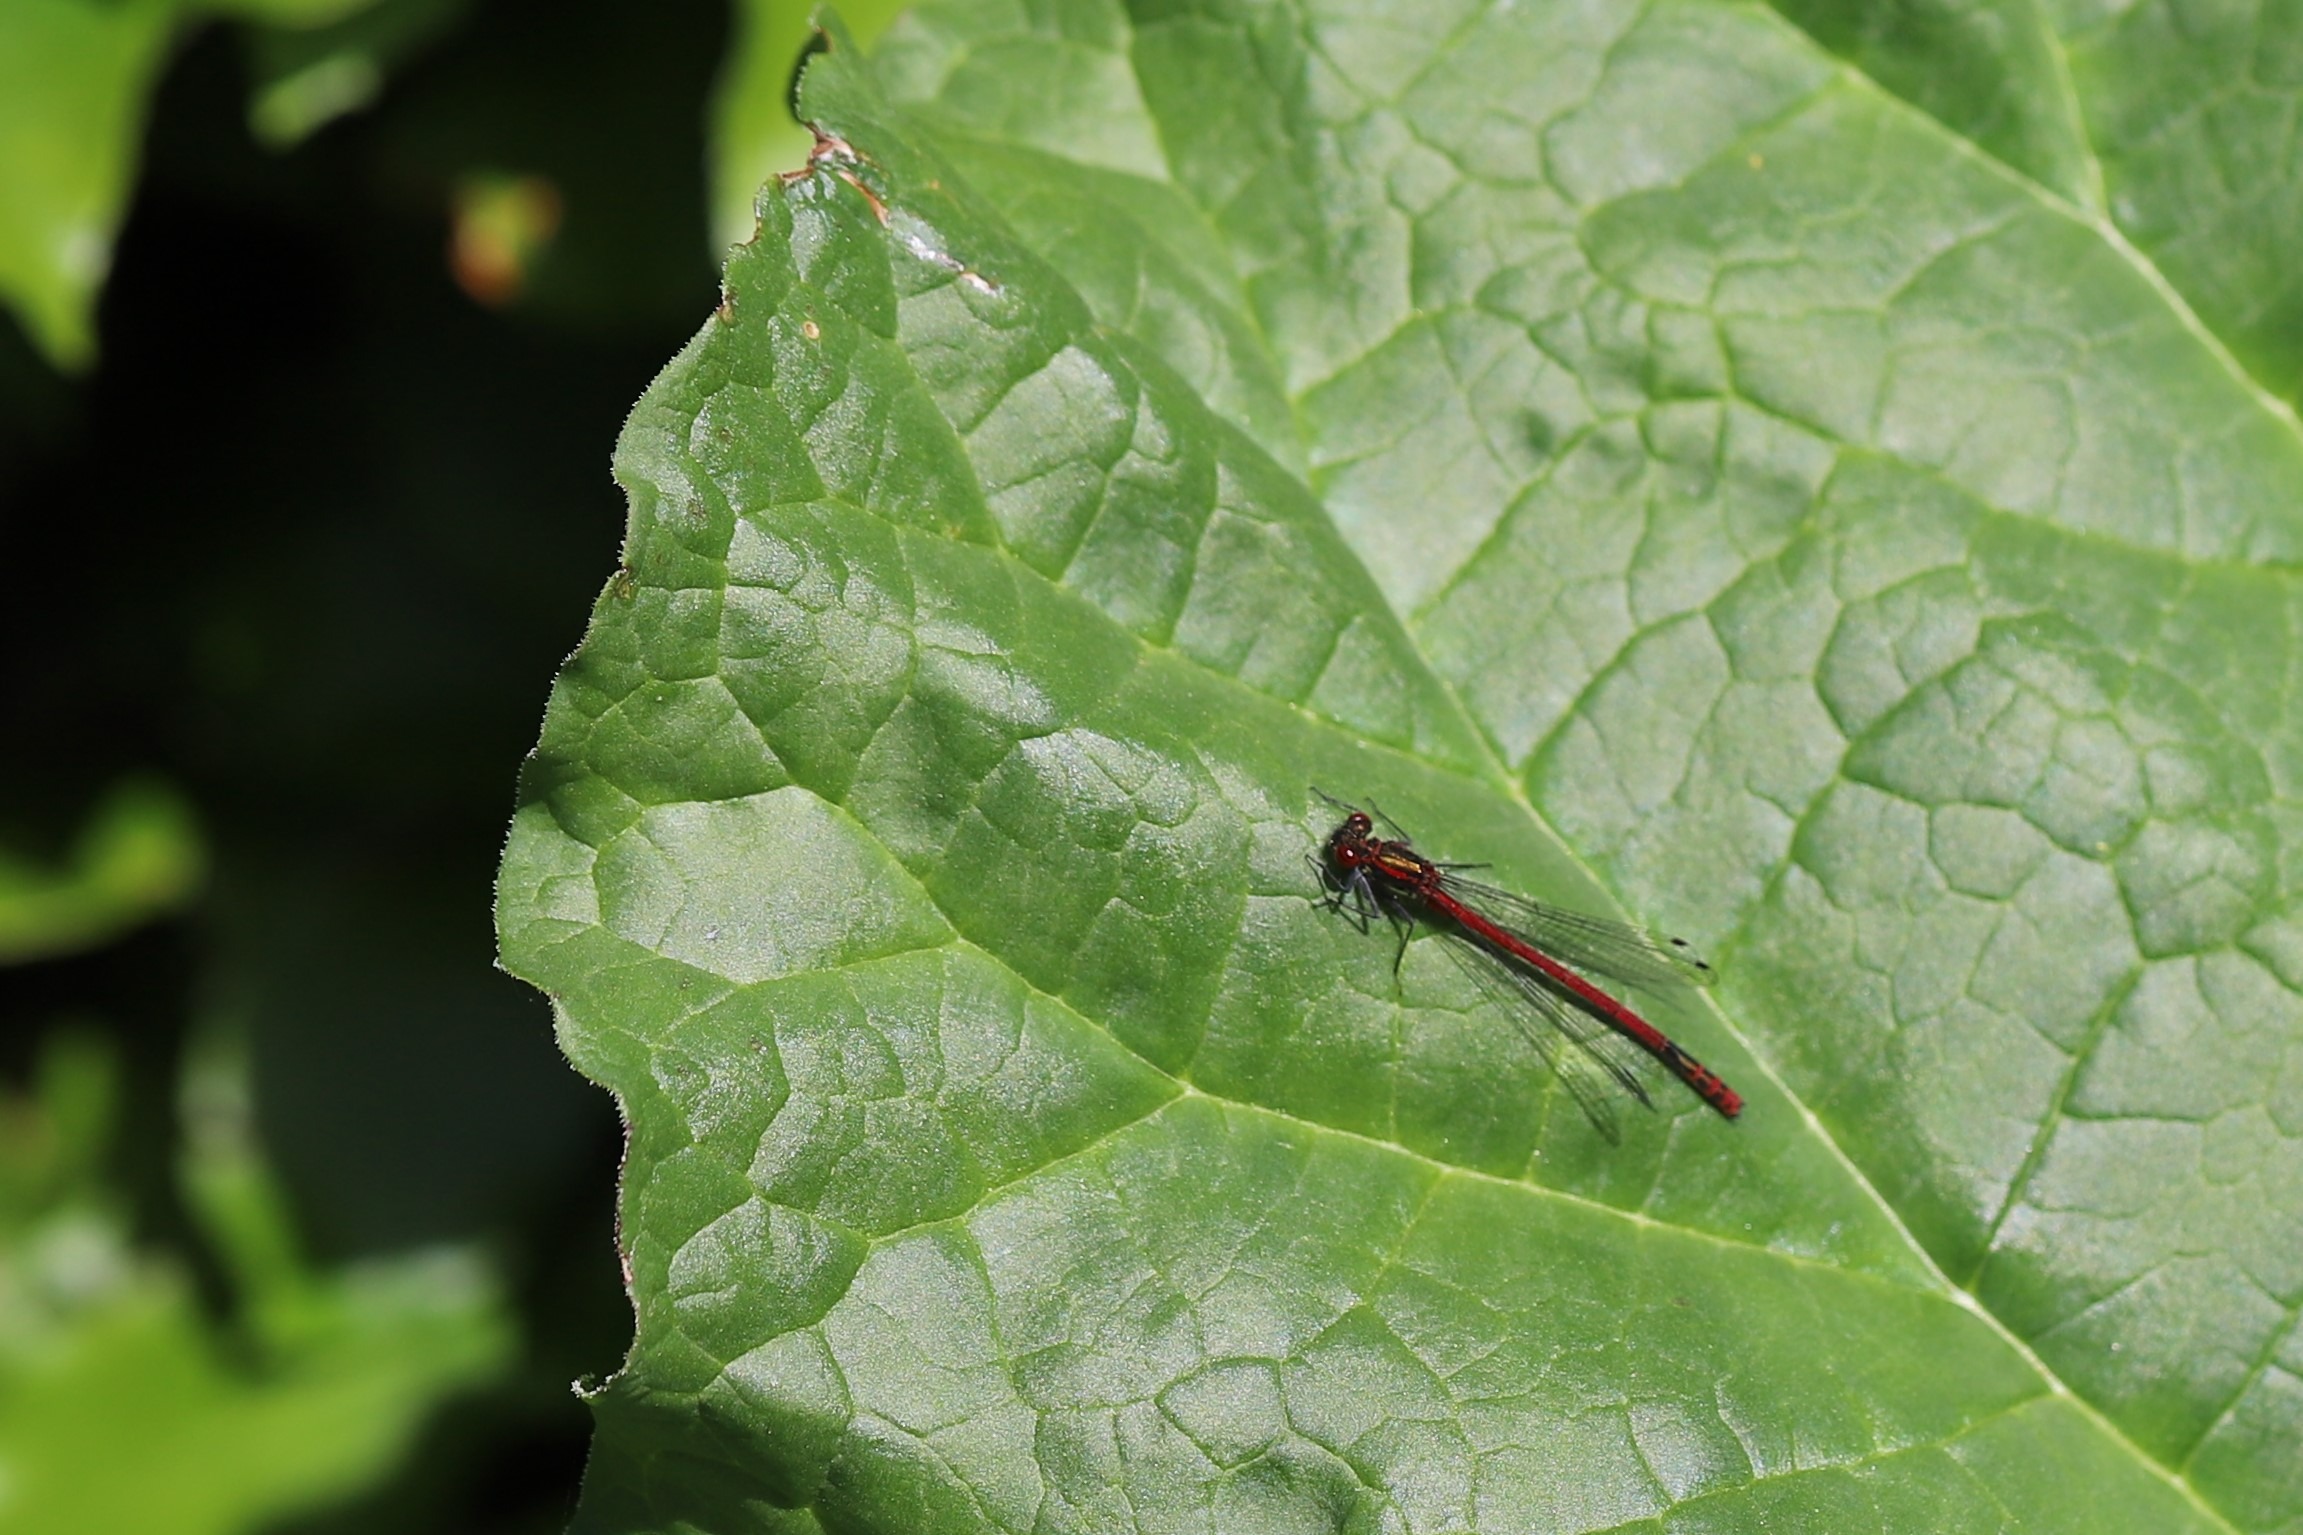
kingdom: Animalia
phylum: Arthropoda
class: Insecta
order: Odonata
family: Coenagrionidae
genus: Pyrrhosoma
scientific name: Pyrrhosoma nymphula
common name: Rød vandnymfe
